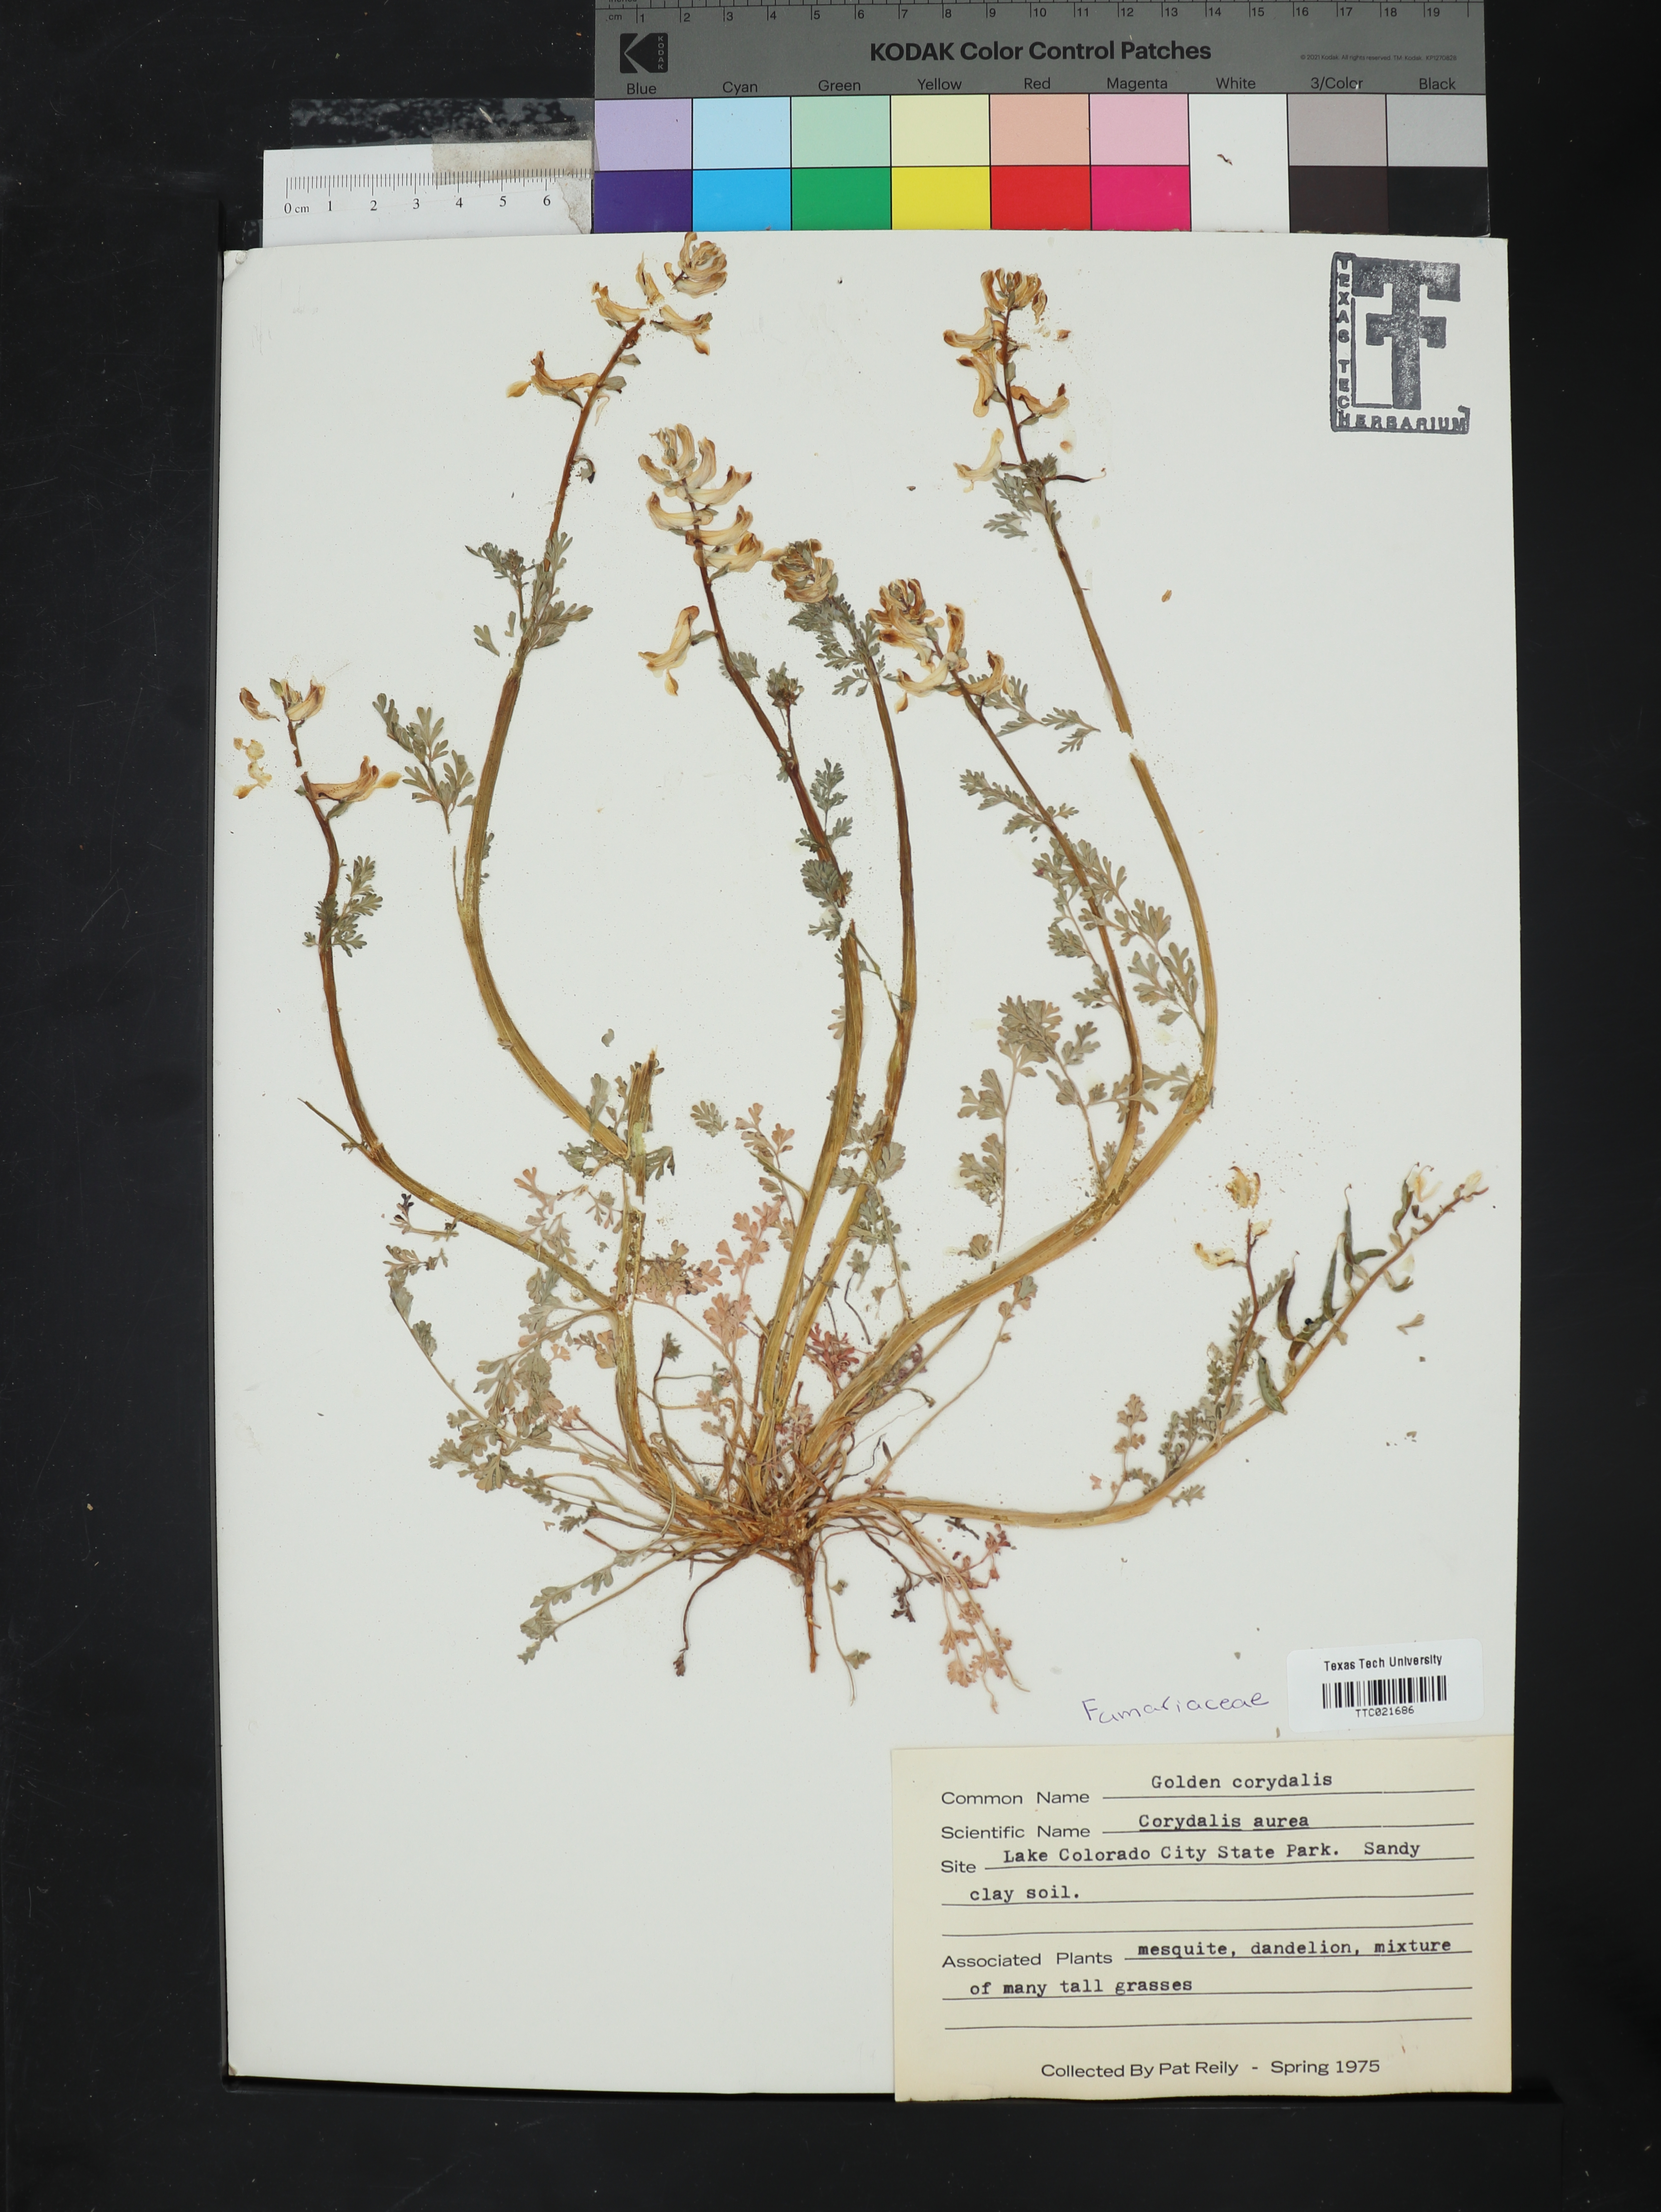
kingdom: Plantae
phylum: Tracheophyta
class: Magnoliopsida
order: Ranunculales
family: Papaveraceae
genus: Corydalis
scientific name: Corydalis aurea
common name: Golden corydalis
